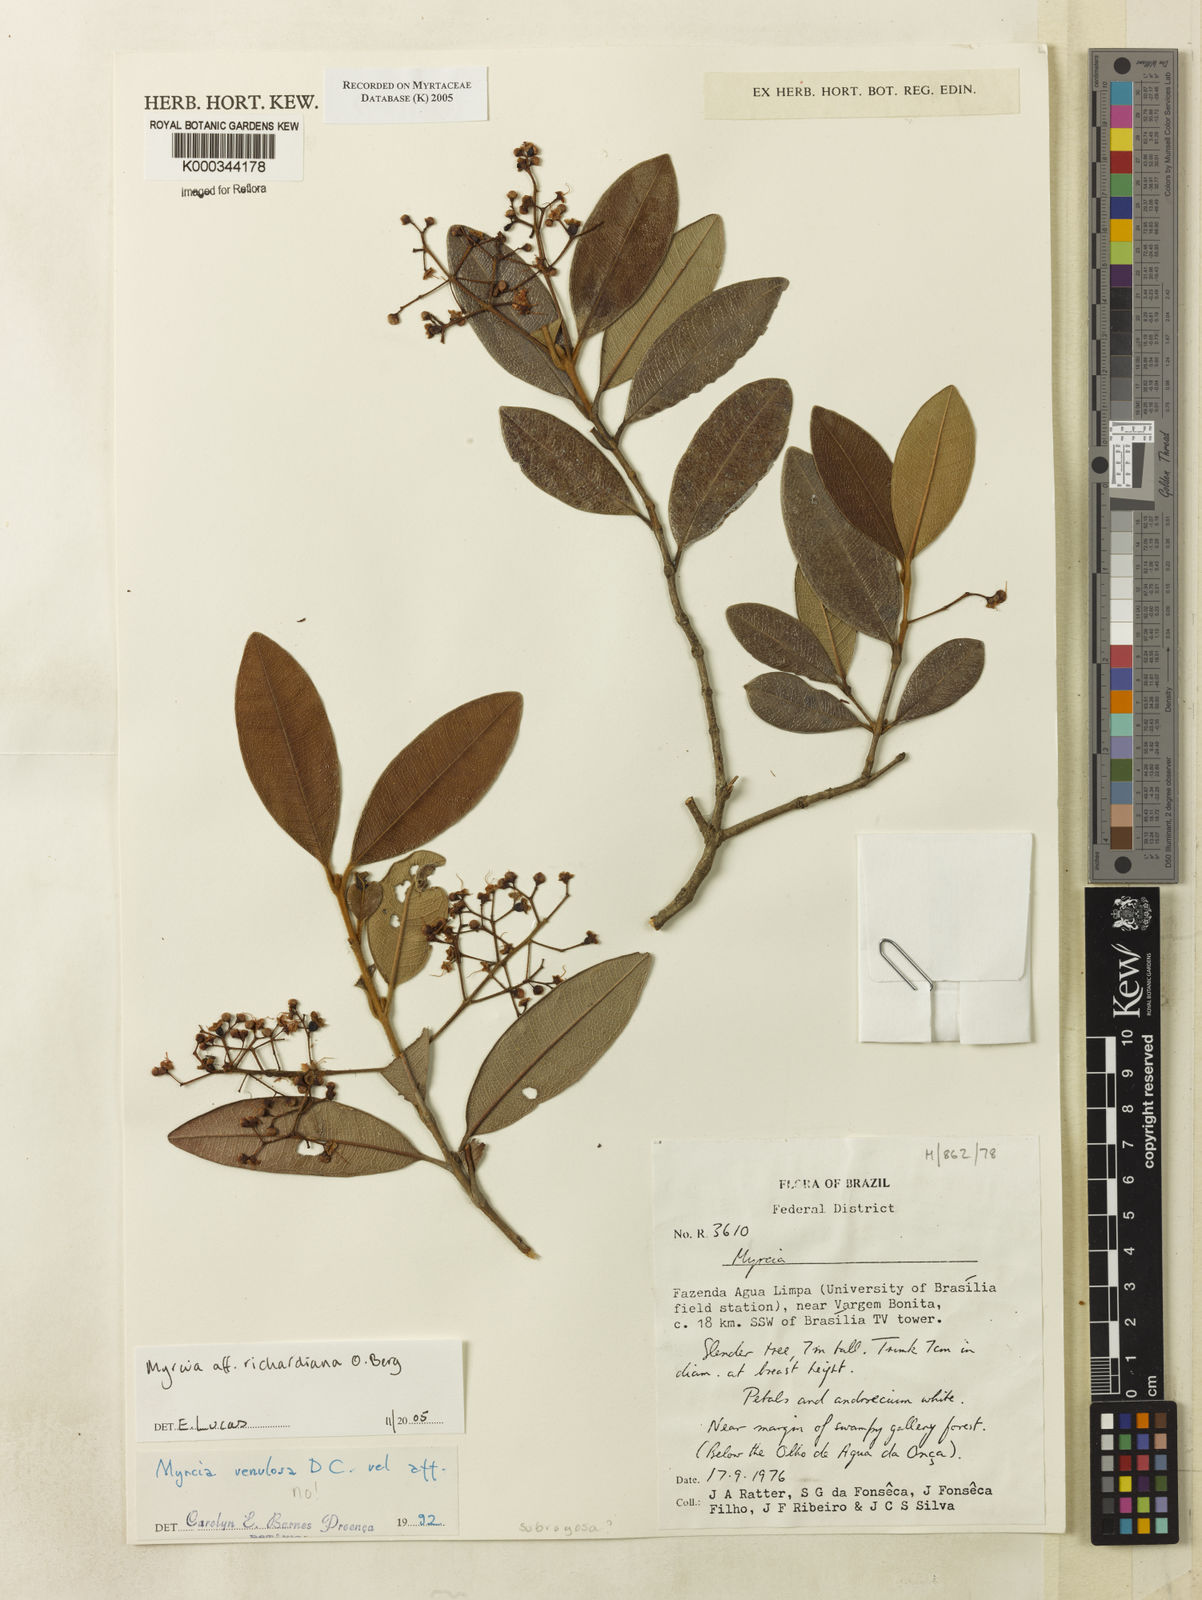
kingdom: Plantae
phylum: Tracheophyta
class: Magnoliopsida
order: Myrtales
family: Myrtaceae
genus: Myrcia
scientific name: Myrcia richardiana
